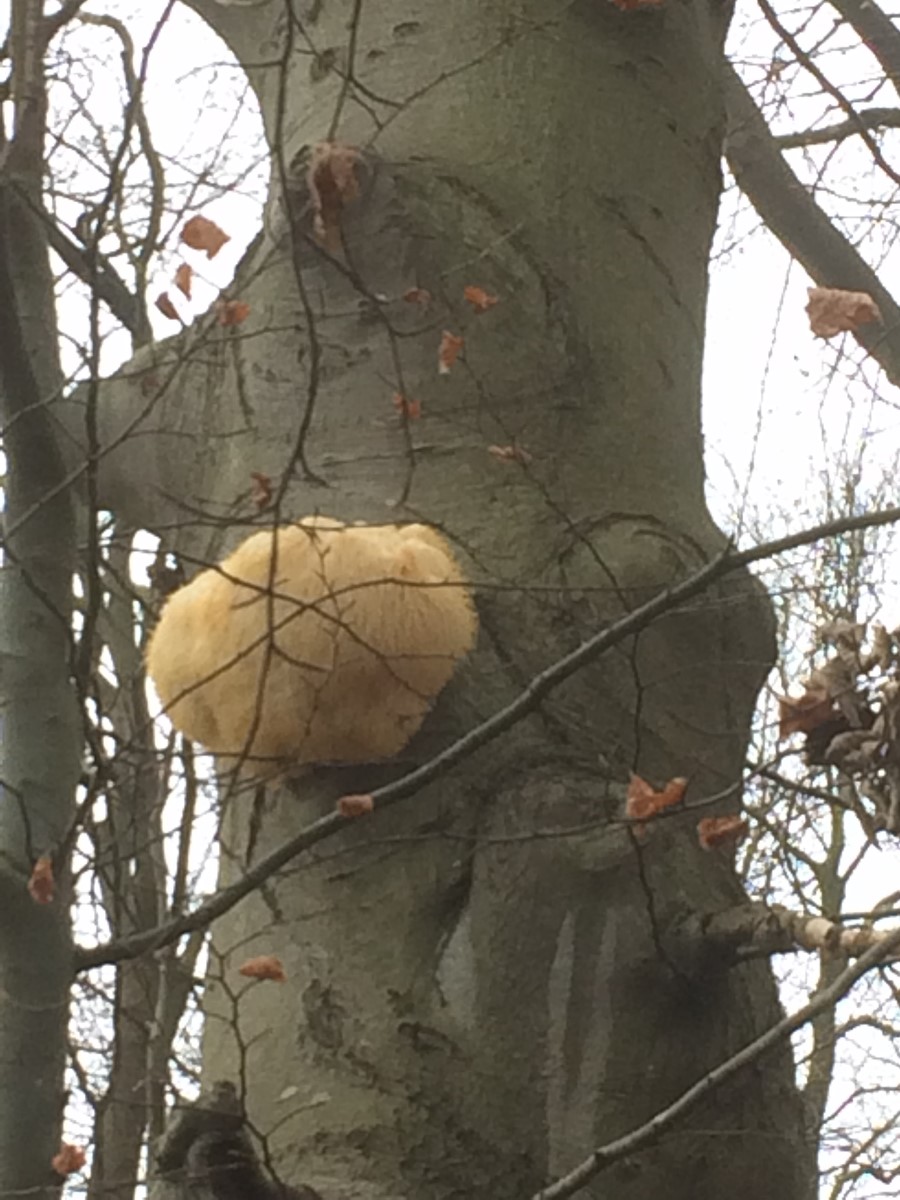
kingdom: Fungi
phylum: Basidiomycota
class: Agaricomycetes
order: Russulales
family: Hericiaceae
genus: Hericium
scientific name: Hericium erinaceus
